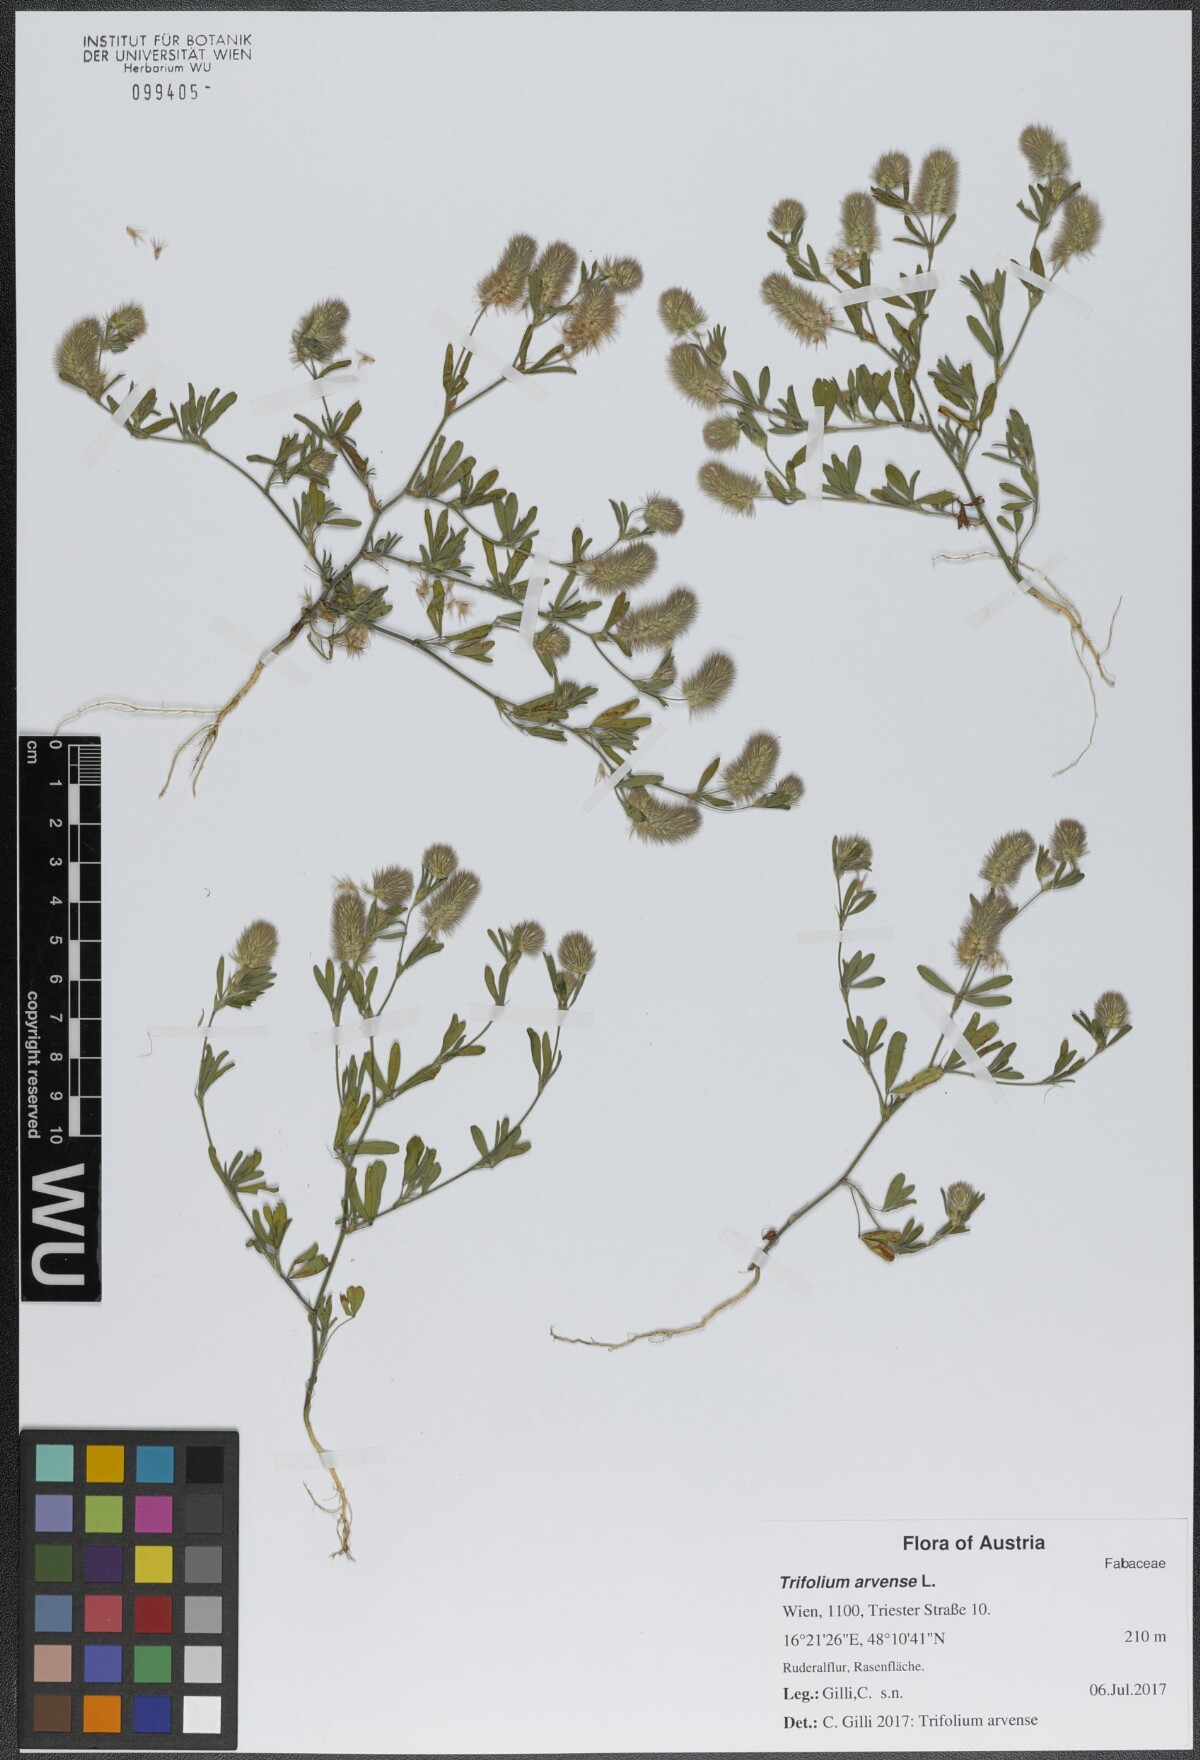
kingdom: Plantae
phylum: Tracheophyta
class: Magnoliopsida
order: Fabales
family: Fabaceae
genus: Trifolium
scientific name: Trifolium arvense
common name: Hare's-foot clover
